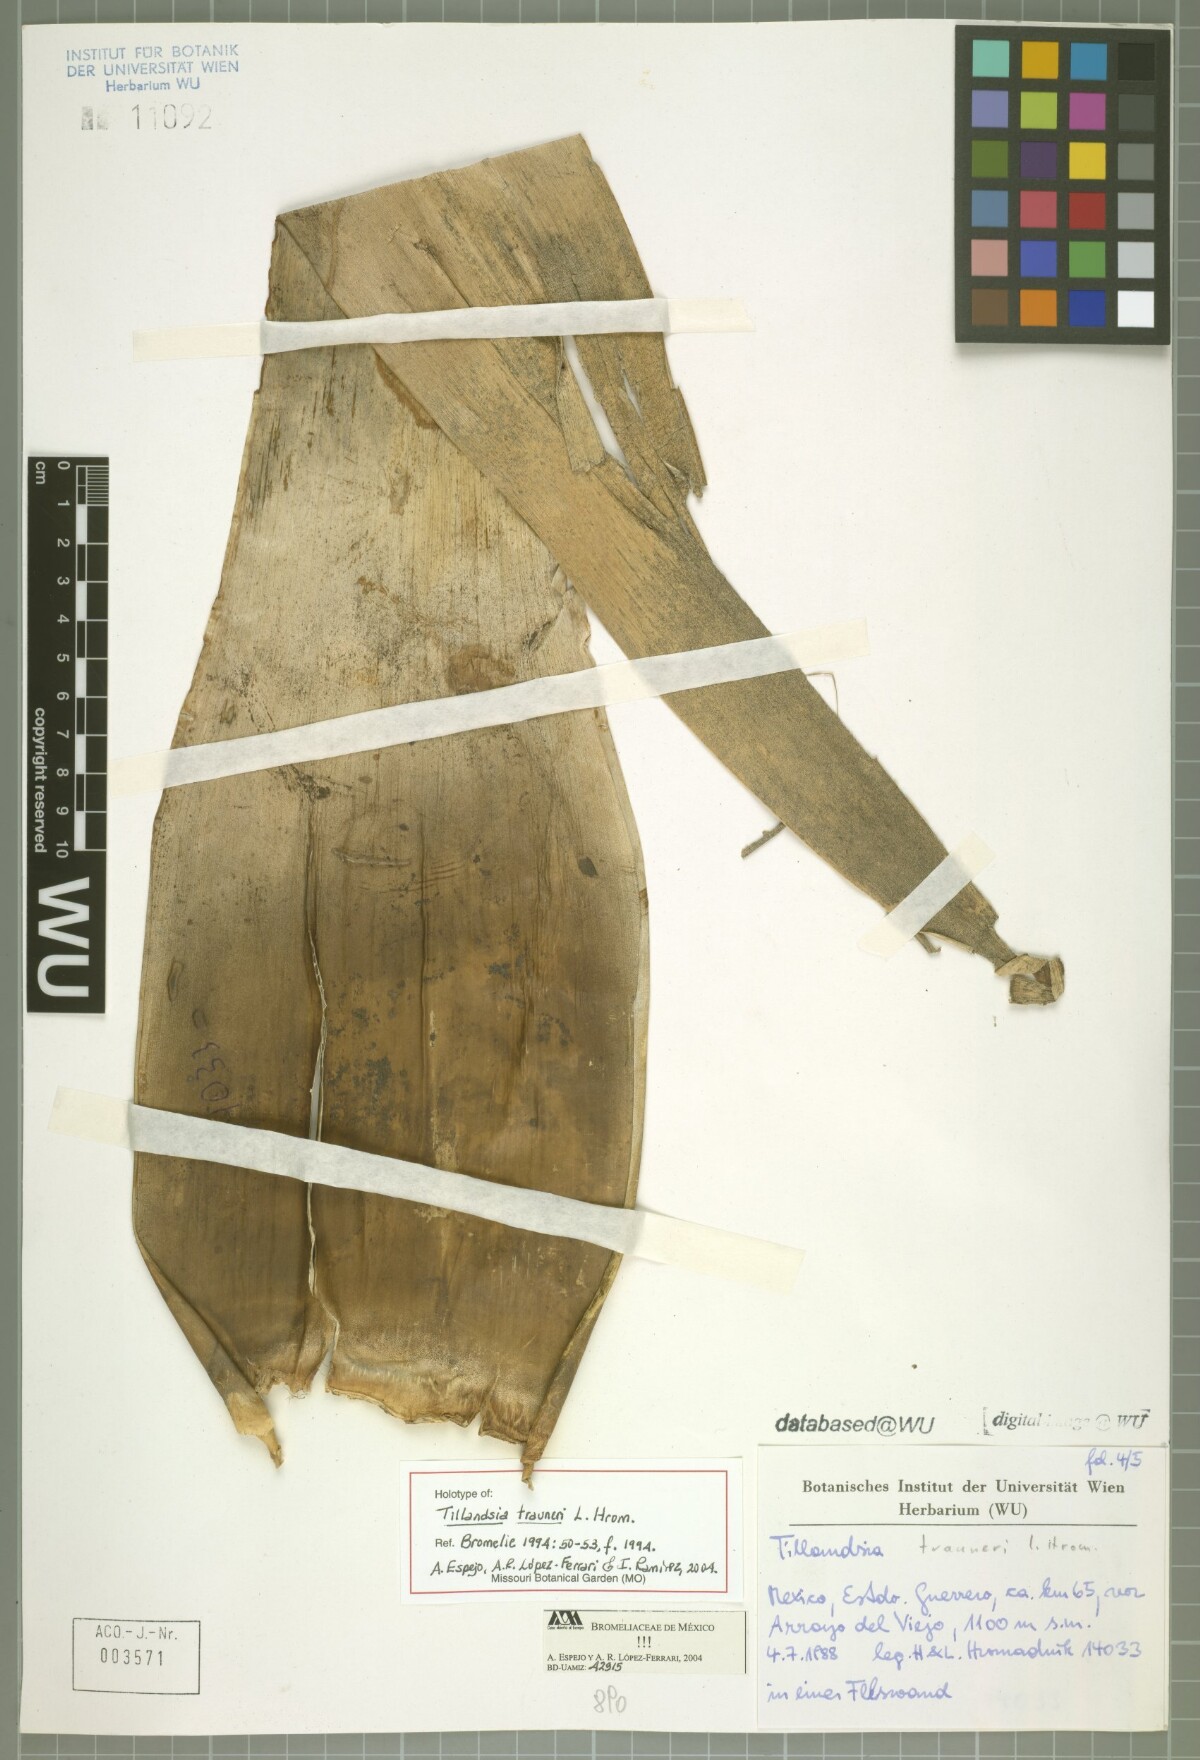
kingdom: Plantae
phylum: Tracheophyta
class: Liliopsida
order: Poales
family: Bromeliaceae
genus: Tillandsia
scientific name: Tillandsia trauneri
